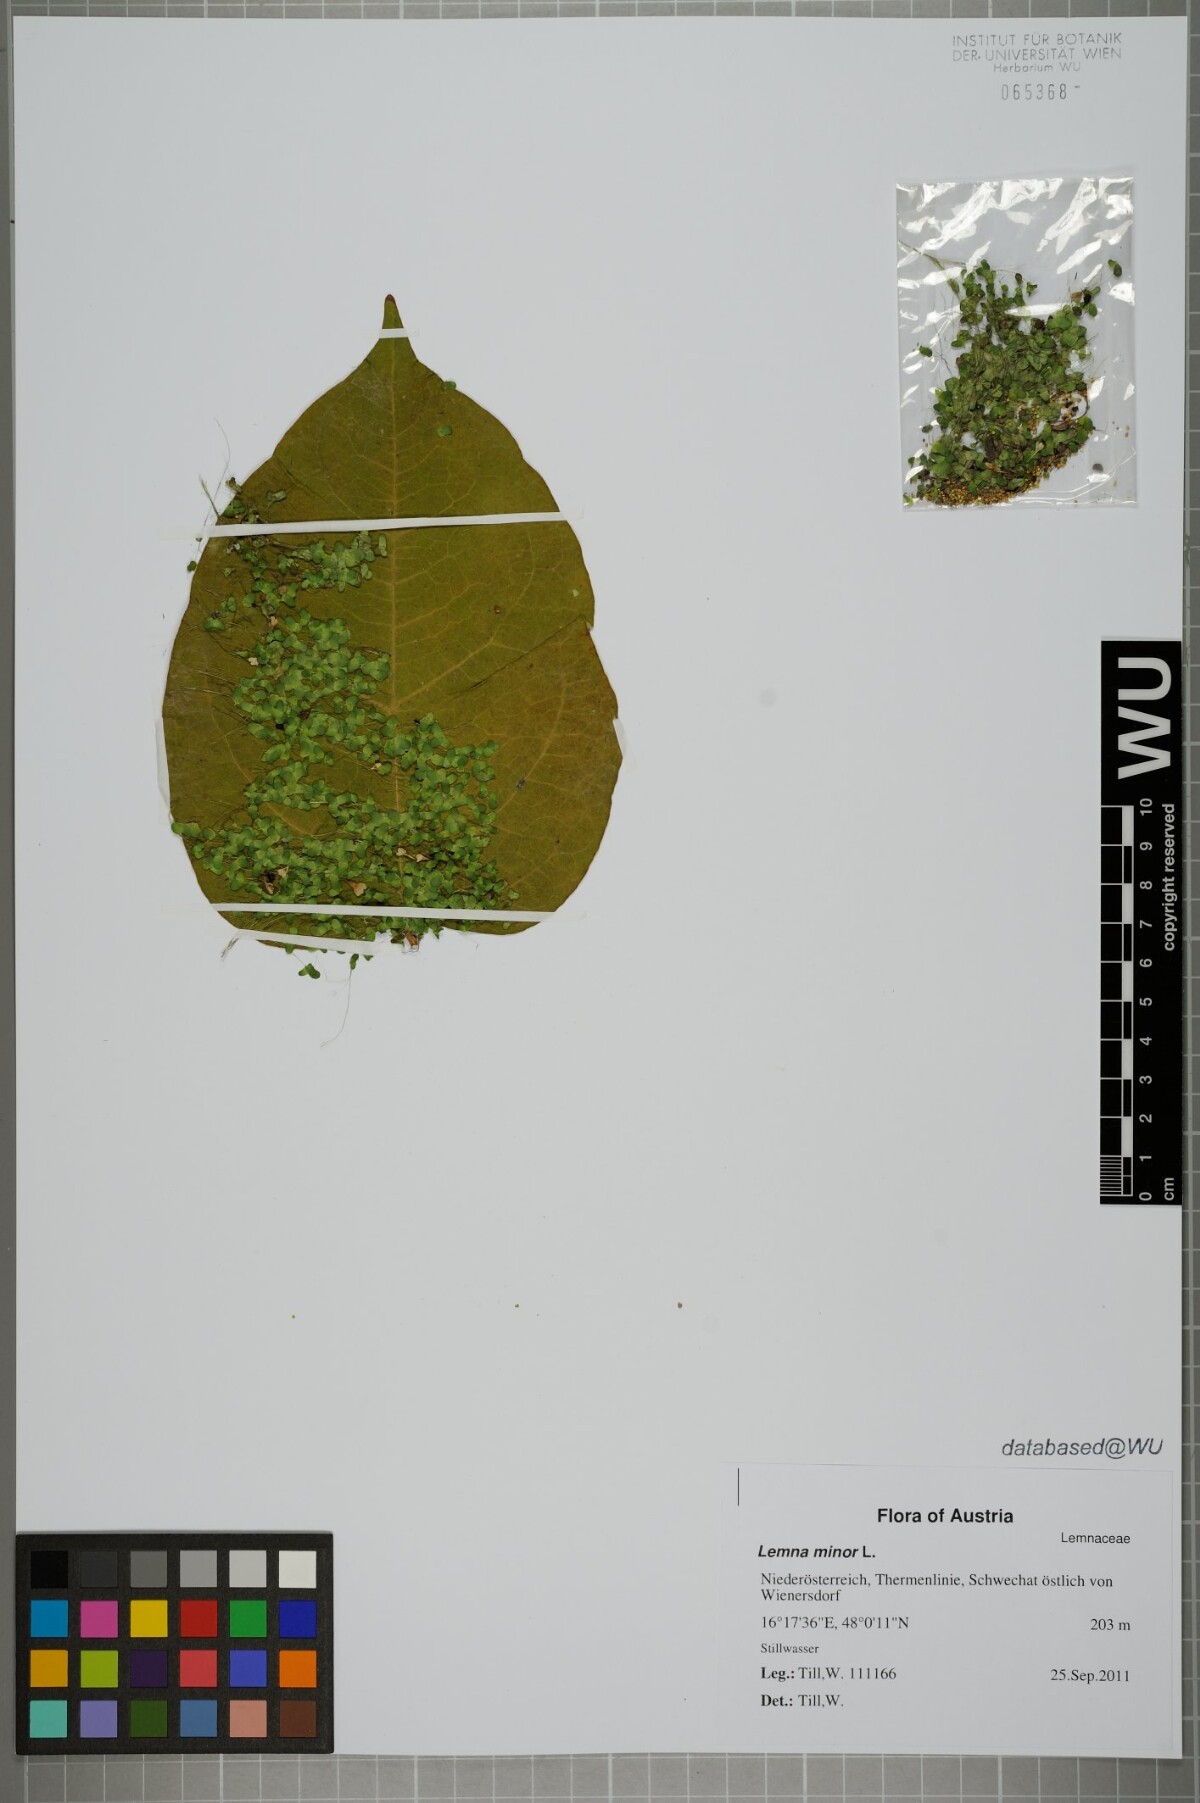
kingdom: Plantae
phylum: Tracheophyta
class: Liliopsida
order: Alismatales
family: Araceae
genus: Lemna
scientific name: Lemna minor
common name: Common duckweed
